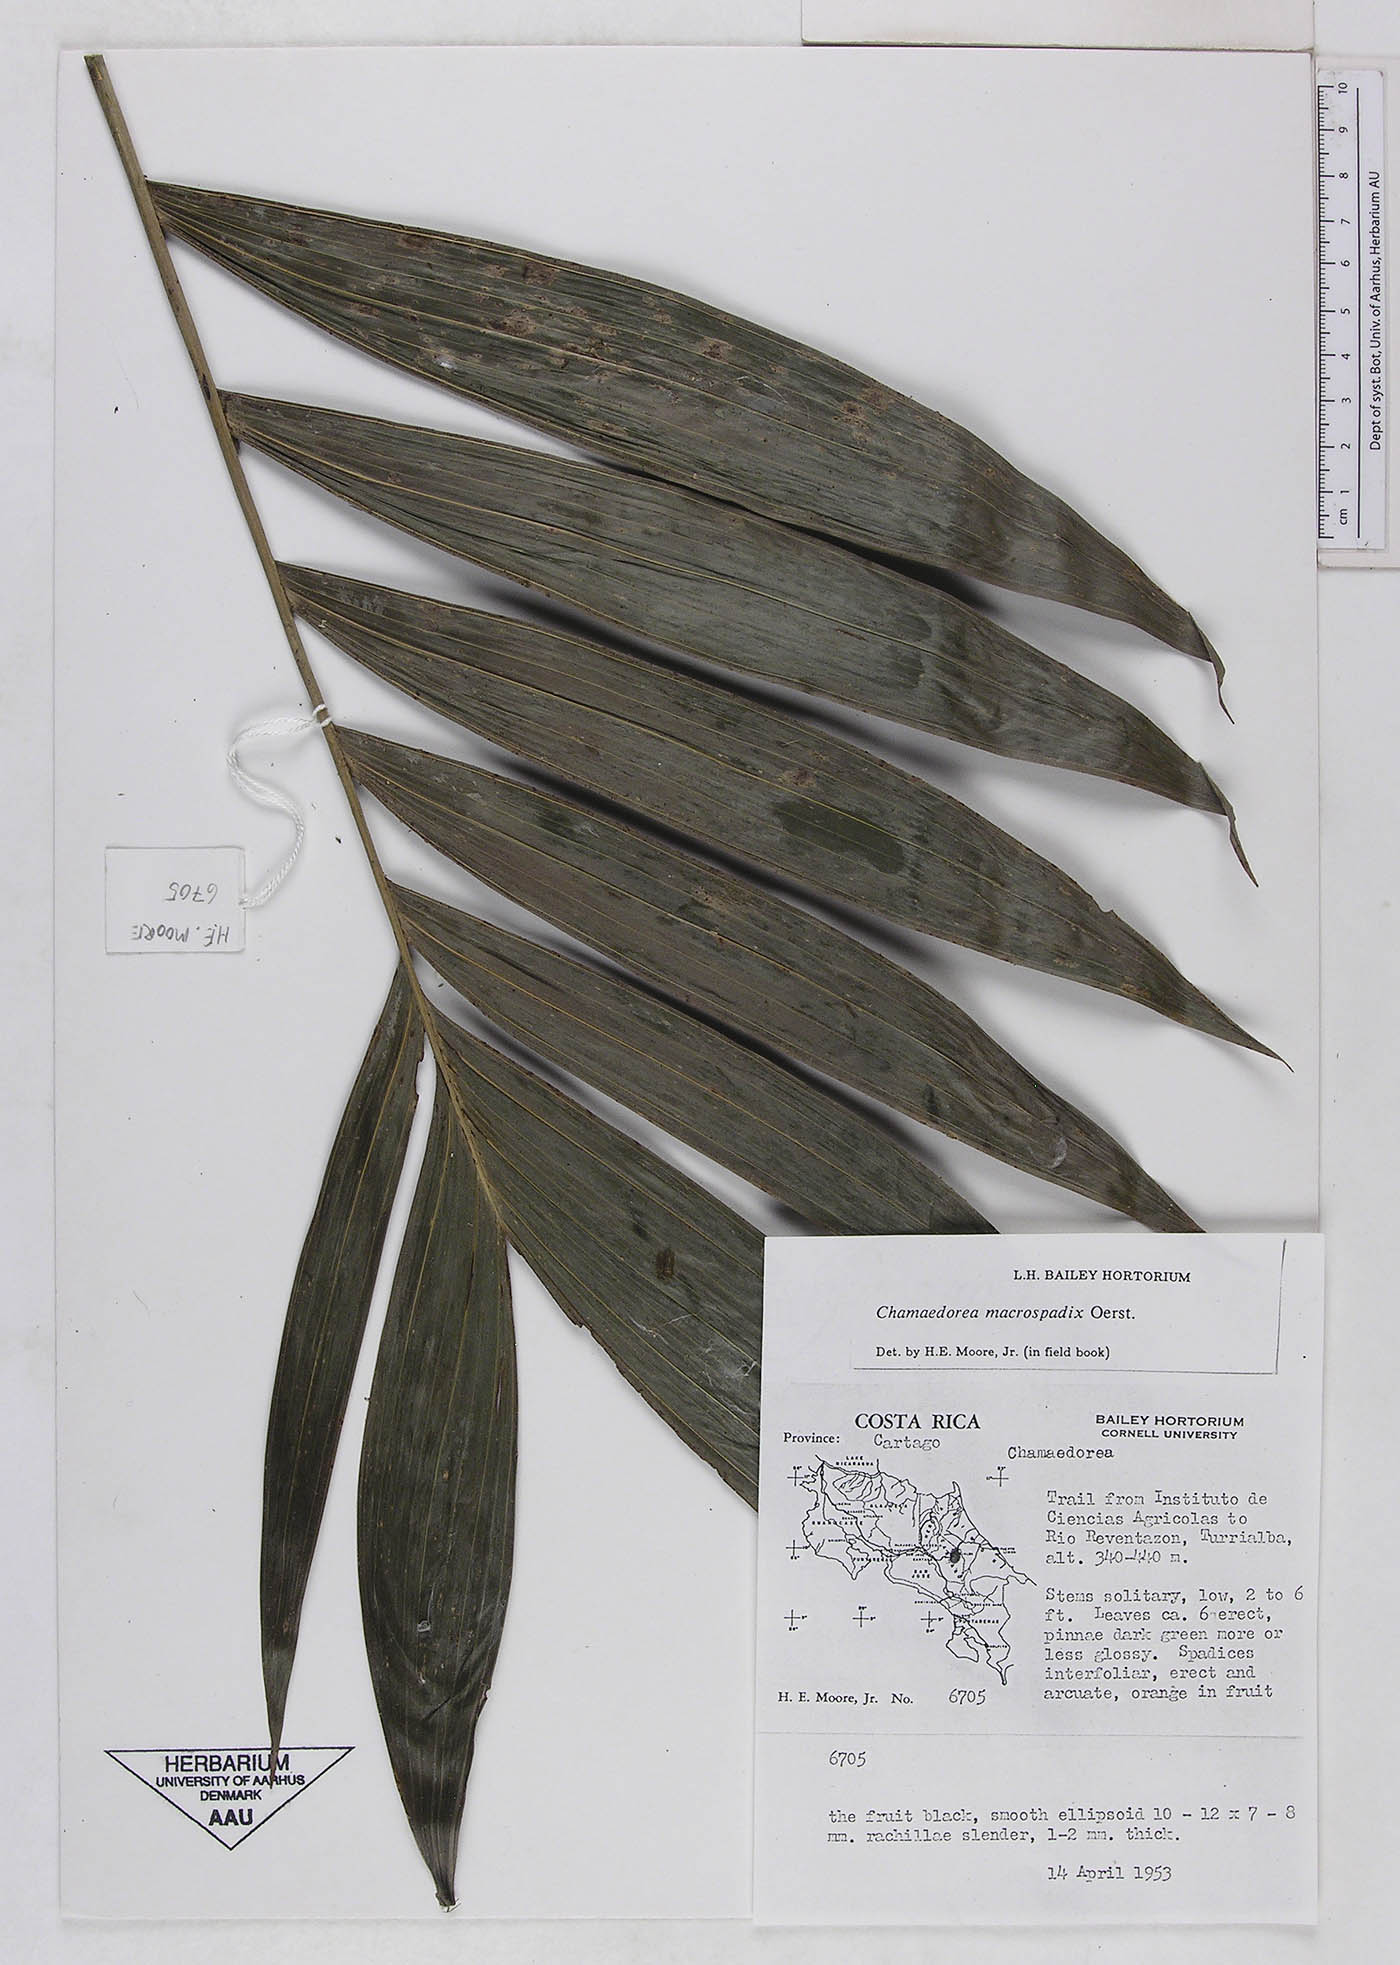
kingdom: Plantae
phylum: Tracheophyta
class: Liliopsida
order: Arecales
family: Arecaceae
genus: Chamaedorea
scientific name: Chamaedorea macrospadix
